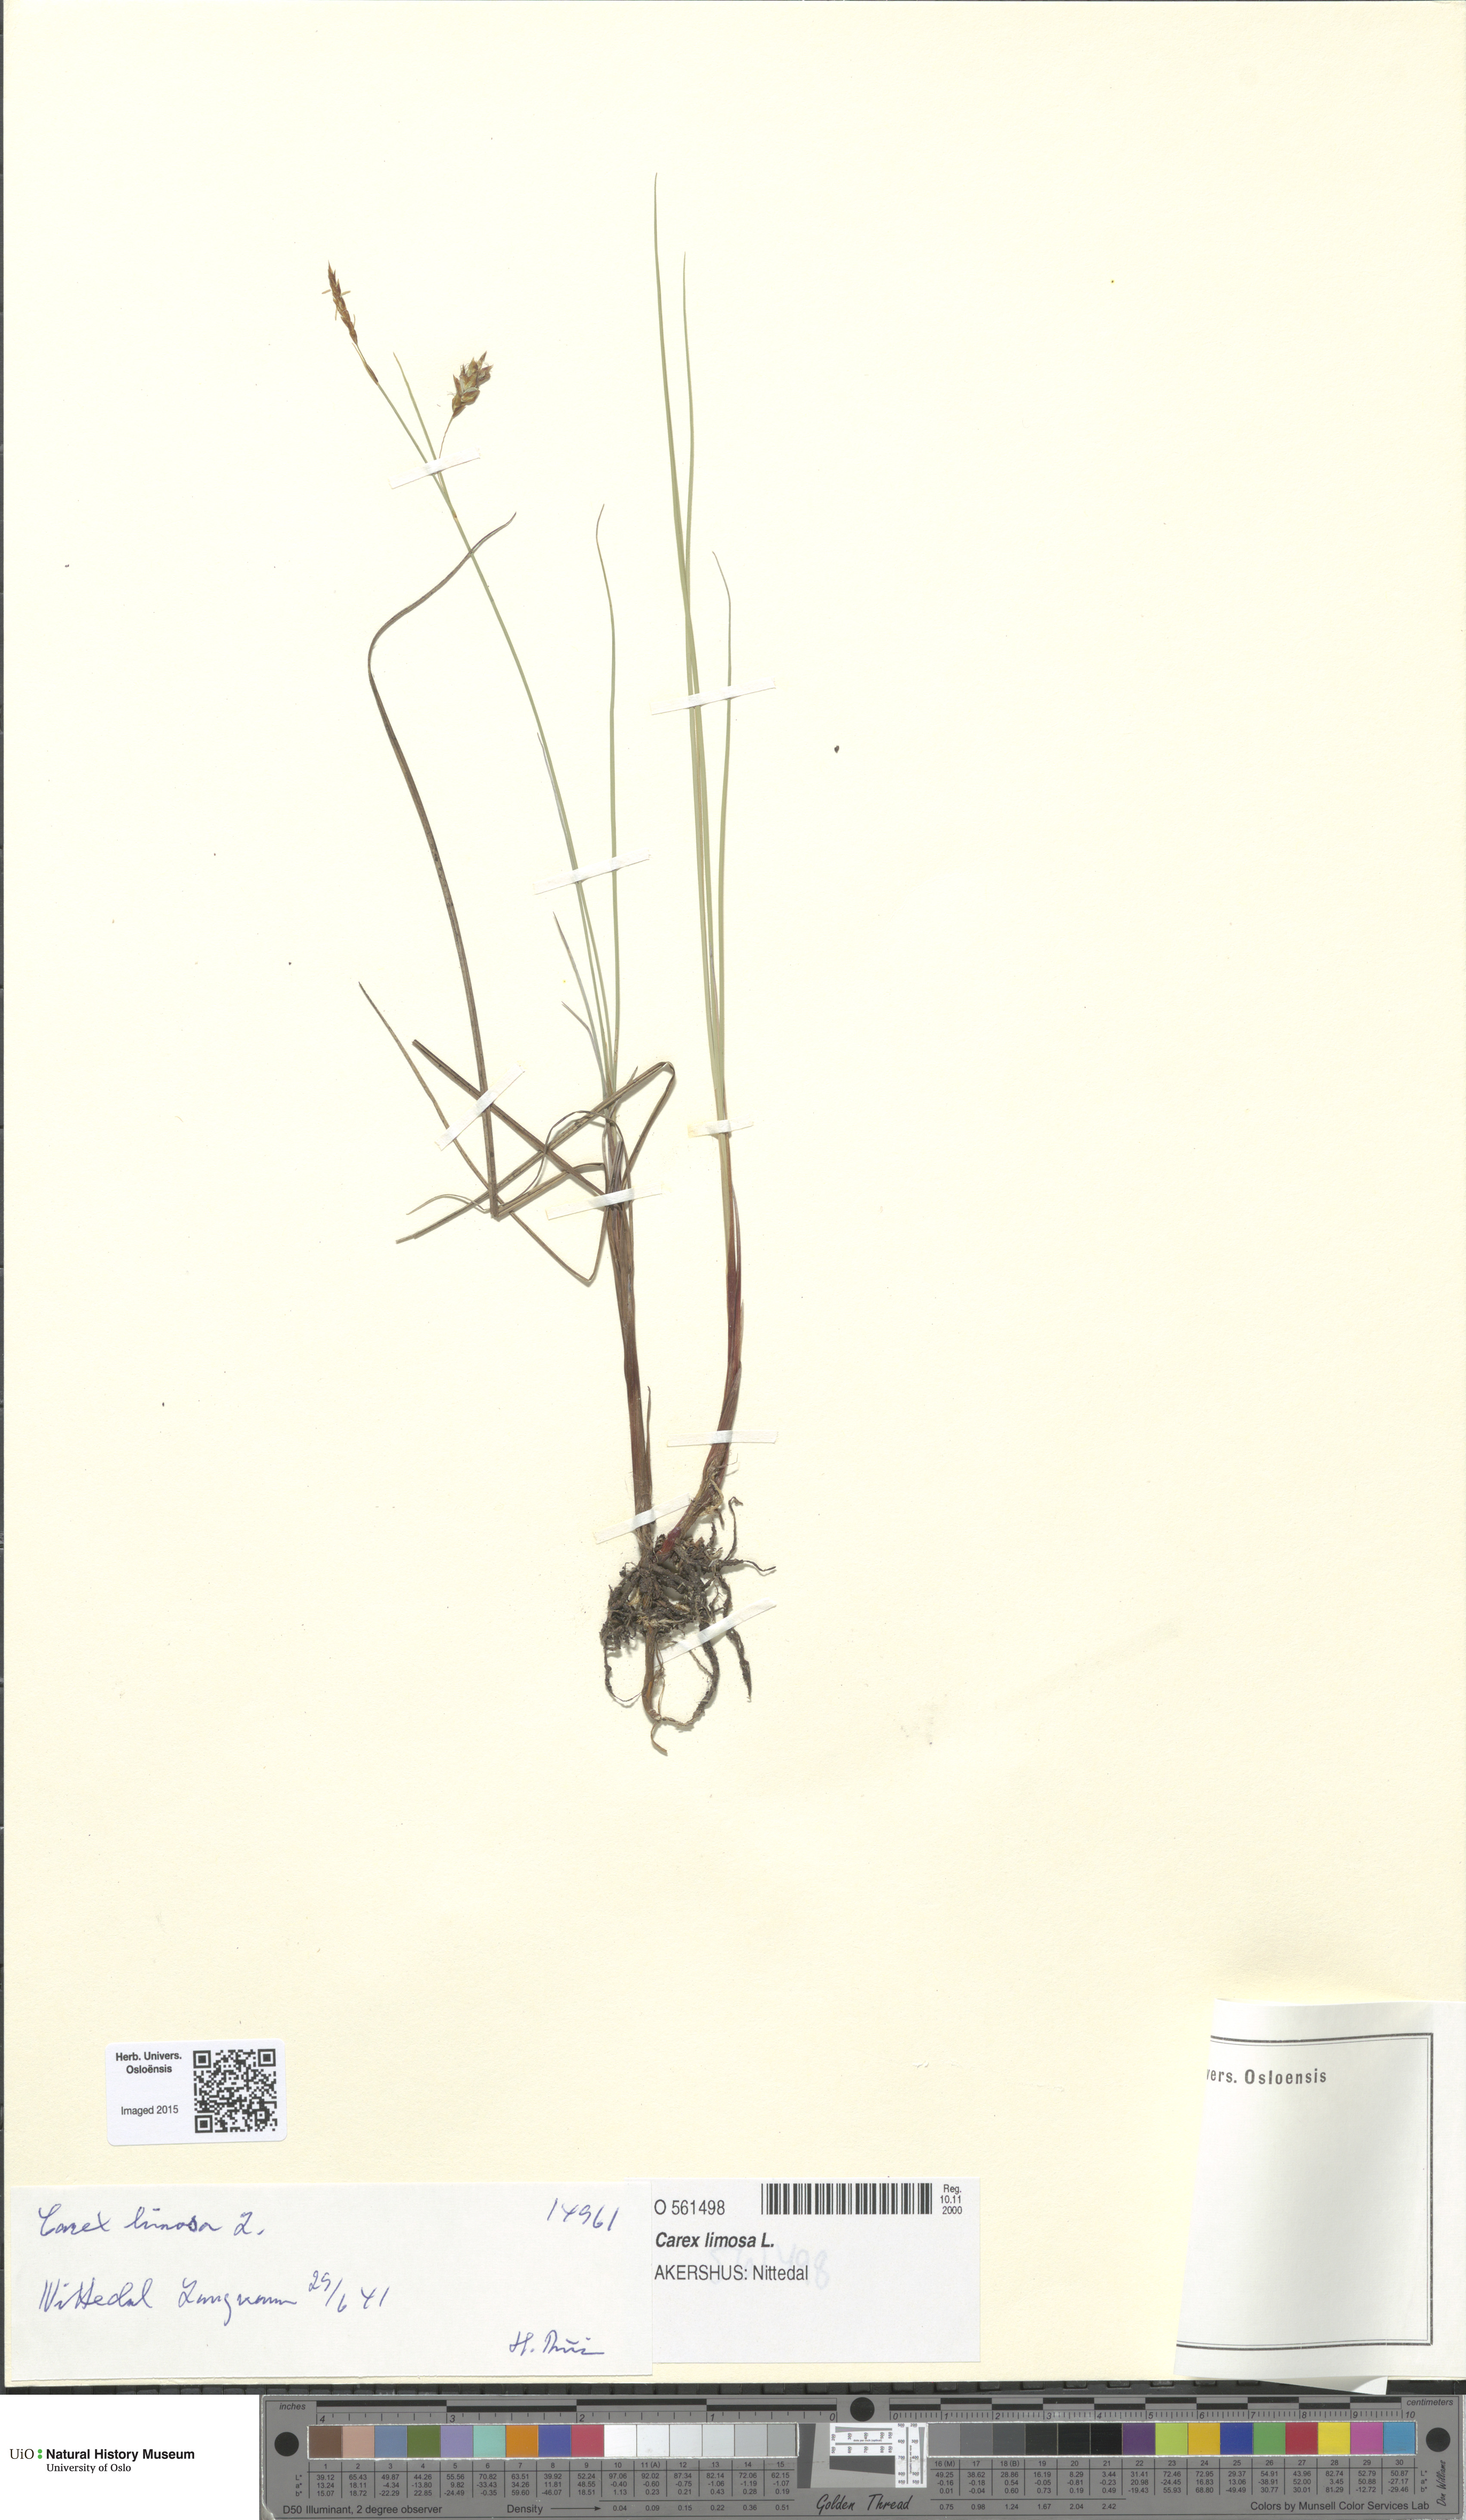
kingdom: Plantae
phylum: Tracheophyta
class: Liliopsida
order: Poales
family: Cyperaceae
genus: Carex
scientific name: Carex limosa
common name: Bog sedge
